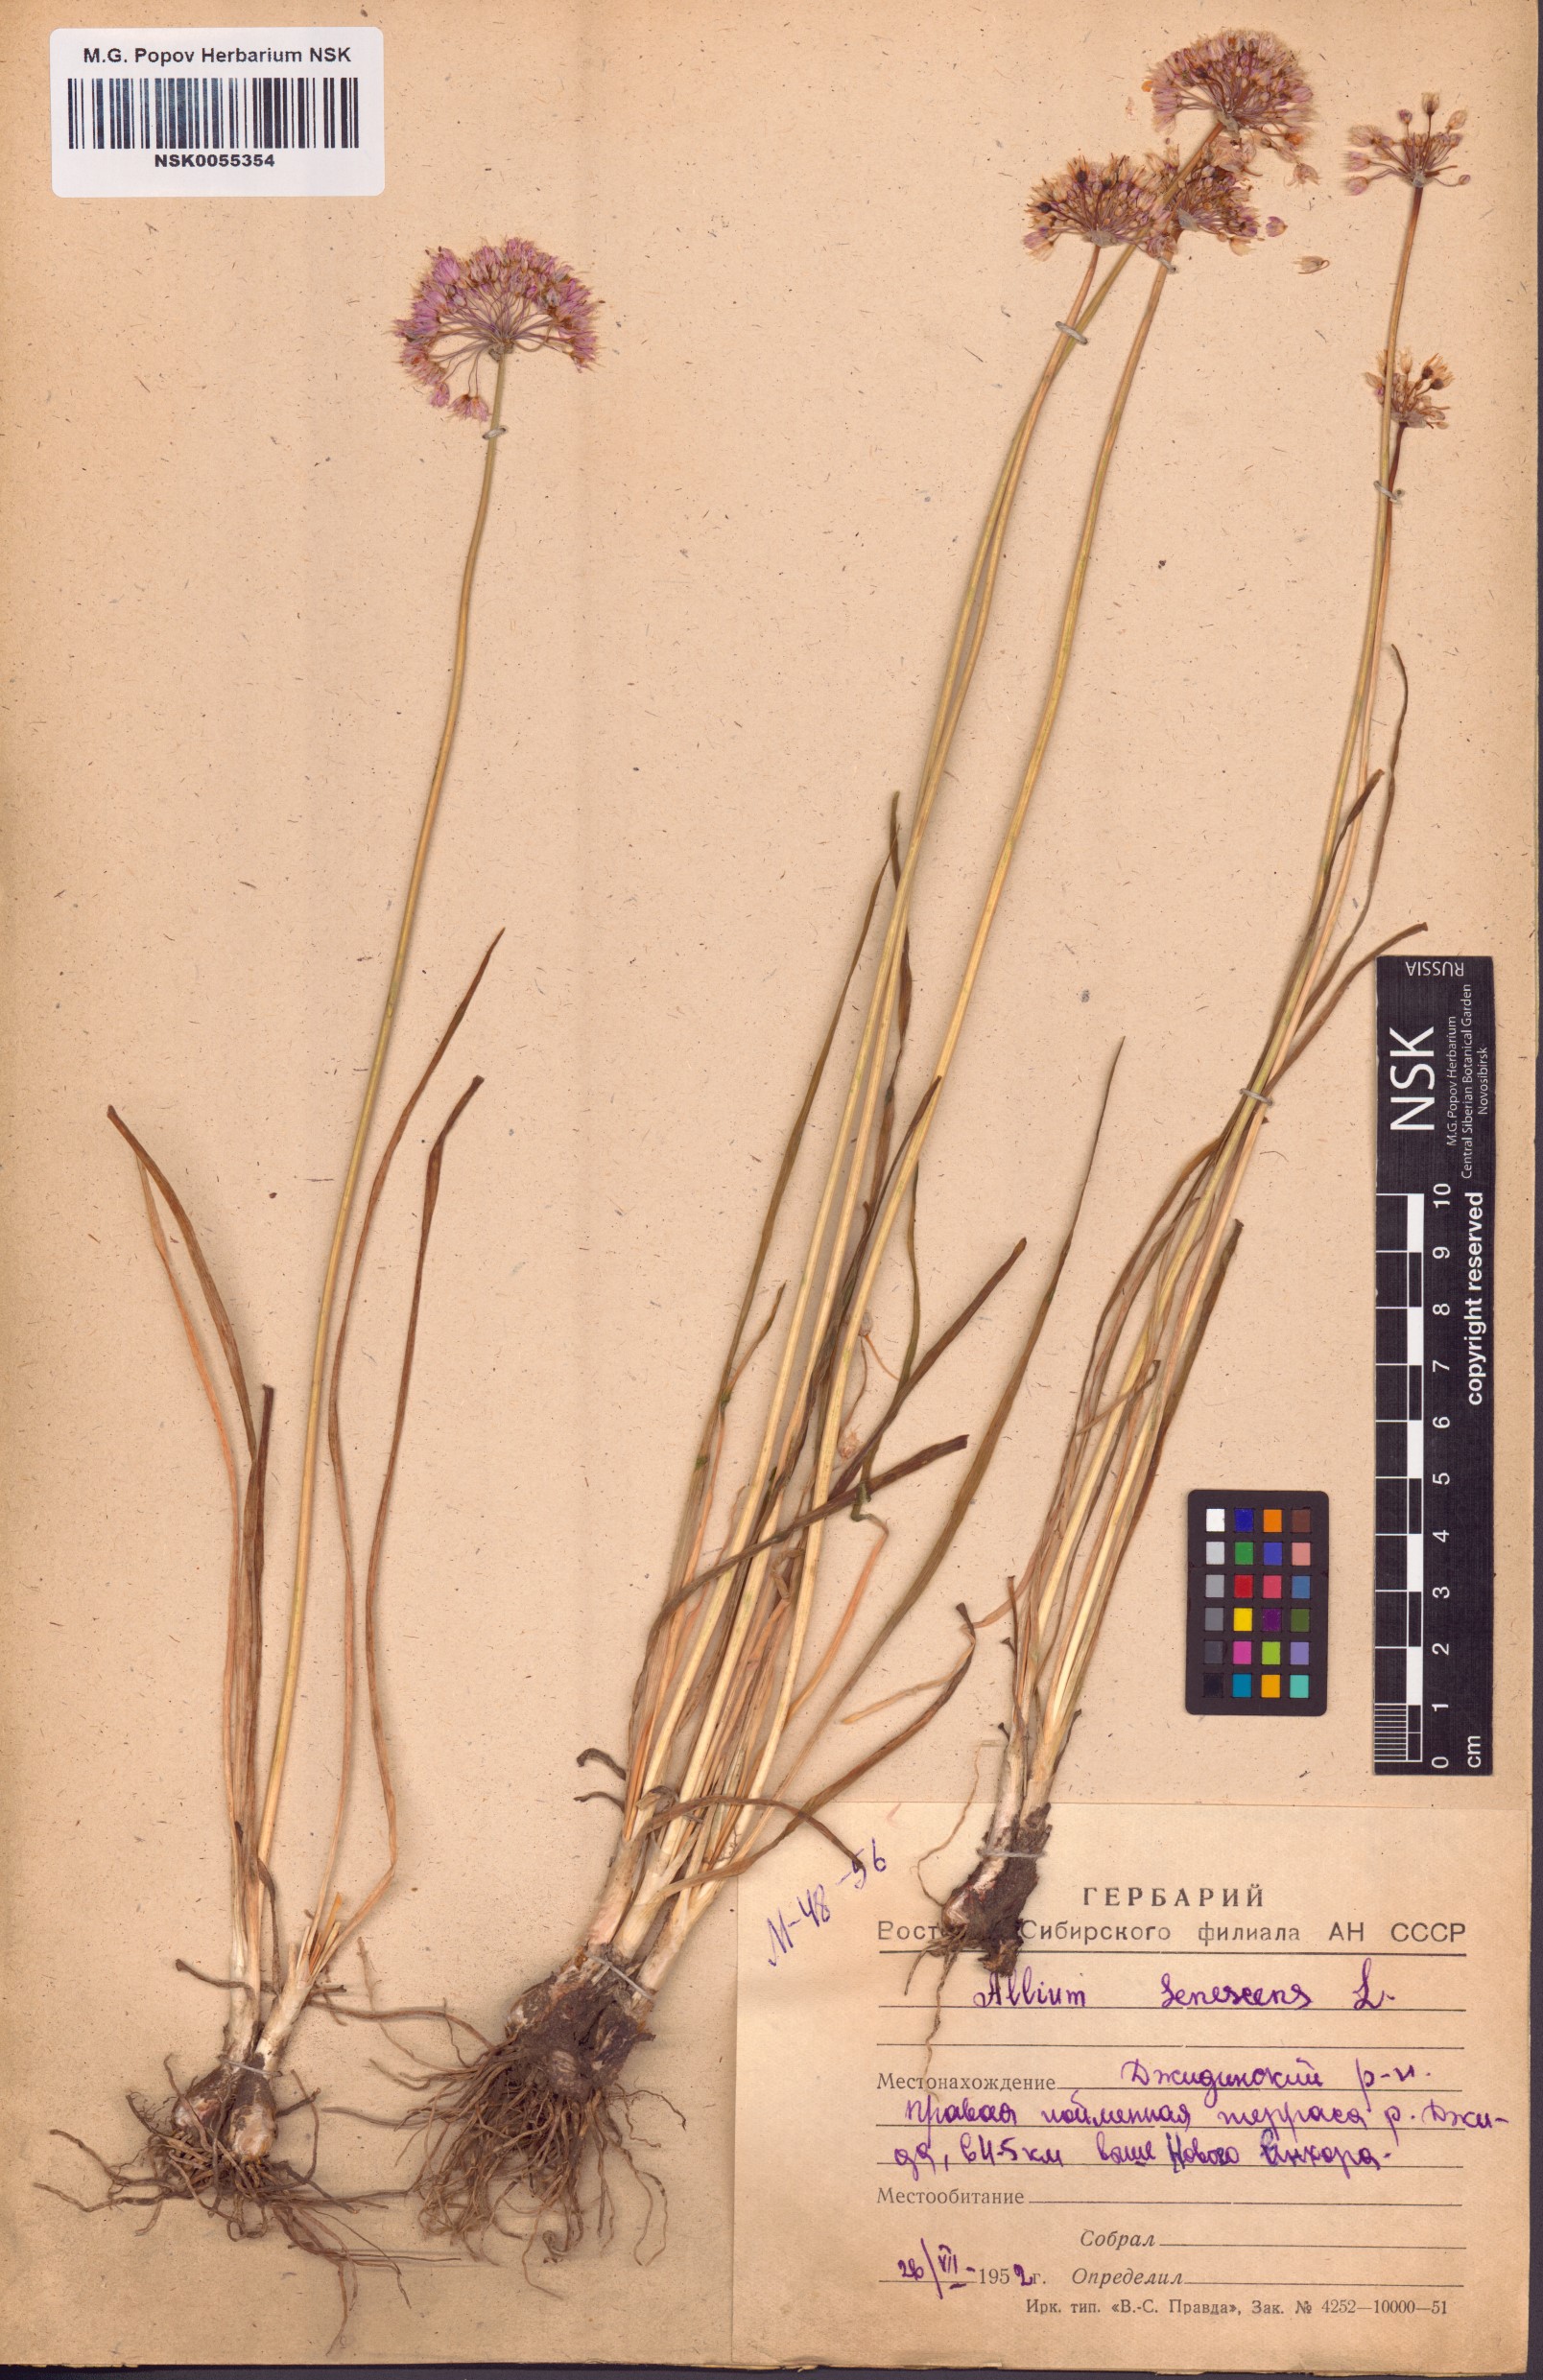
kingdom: Plantae
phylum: Tracheophyta
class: Liliopsida
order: Asparagales
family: Amaryllidaceae
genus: Allium
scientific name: Allium senescens
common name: German garlic
